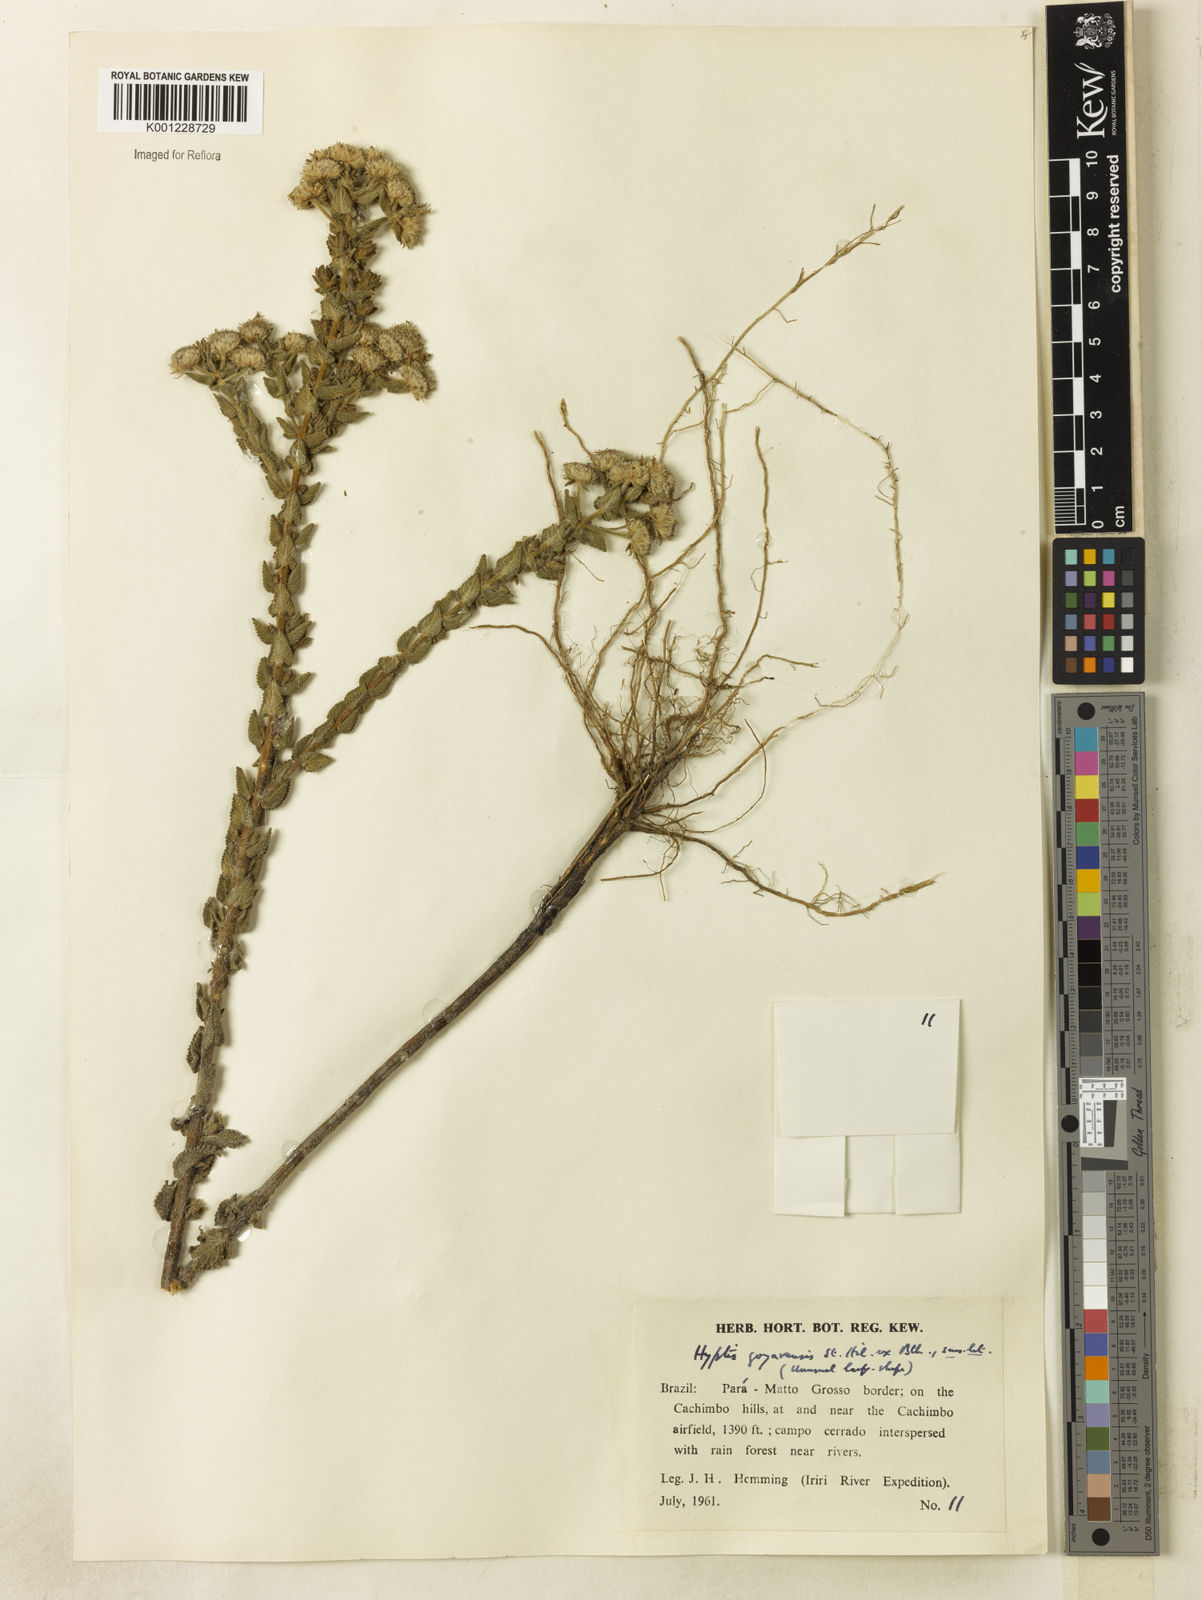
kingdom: Plantae
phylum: Tracheophyta
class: Magnoliopsida
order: Lamiales
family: Lamiaceae
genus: Hyptis
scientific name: Hyptis crenata
